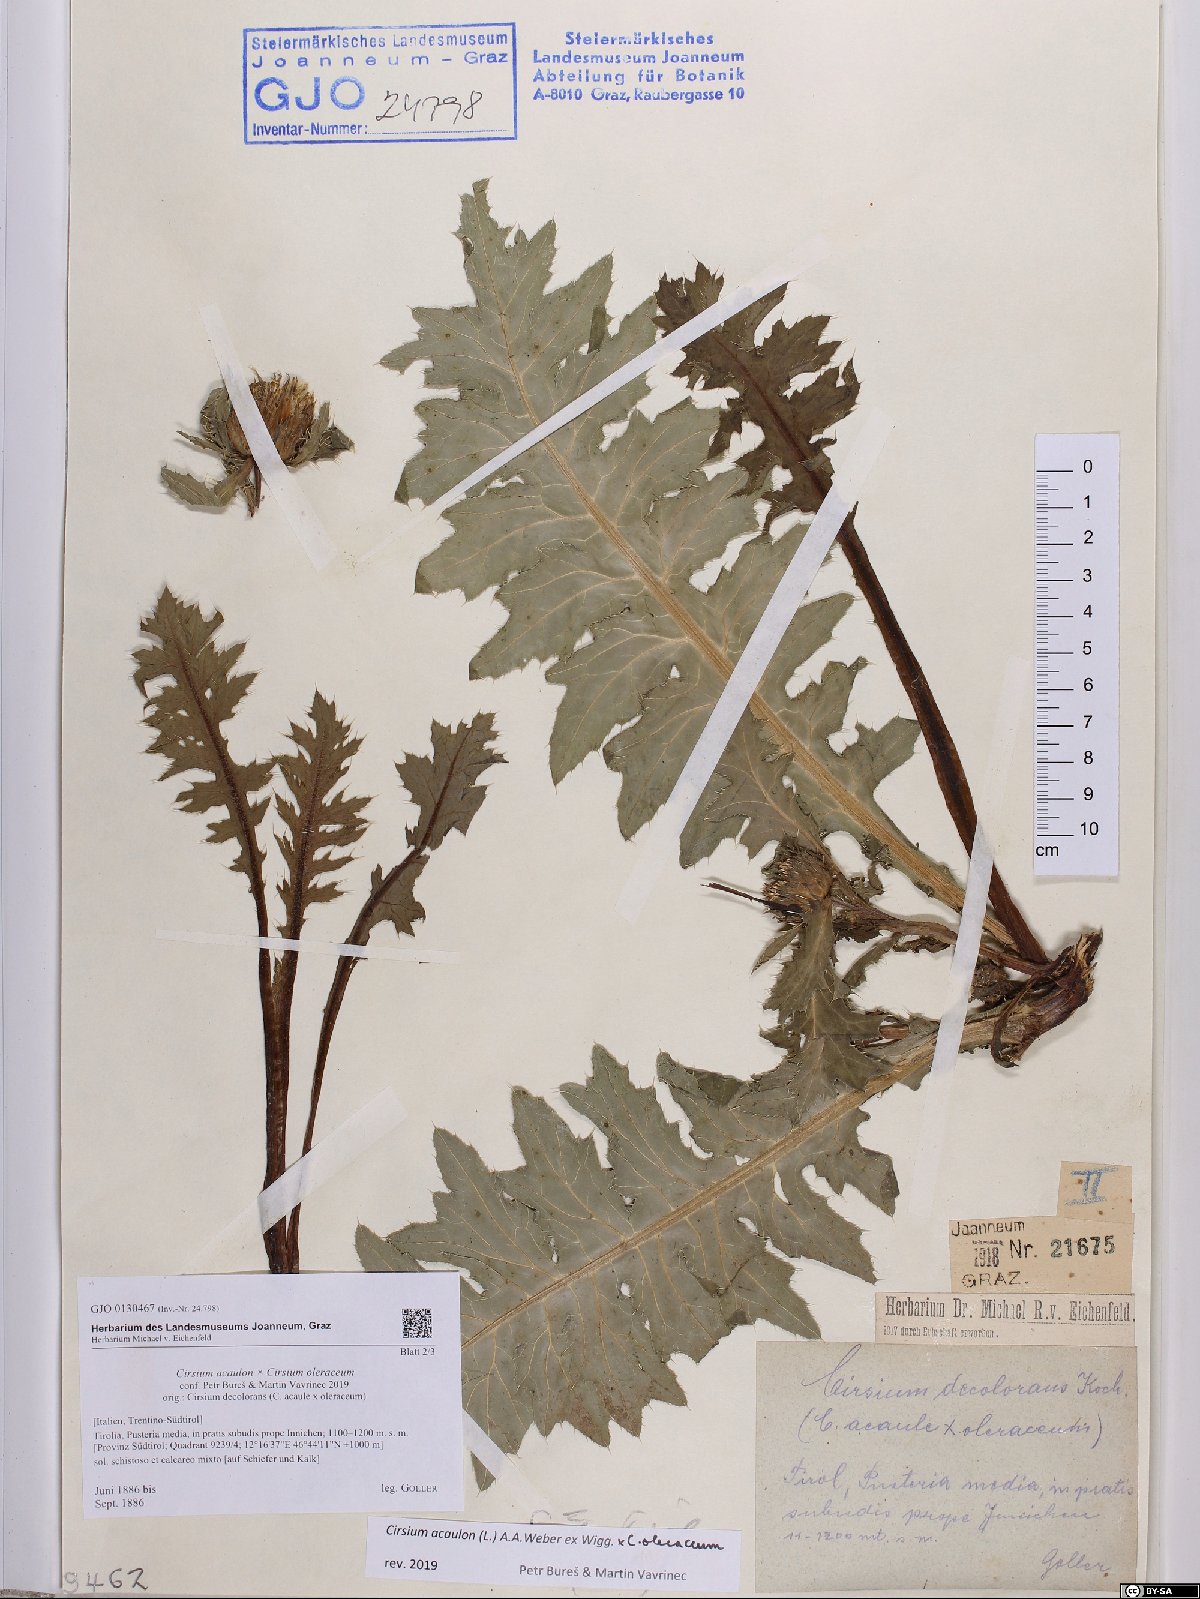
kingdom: Plantae
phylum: Tracheophyta
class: Magnoliopsida
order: Asterales
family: Asteraceae
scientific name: Asteraceae
